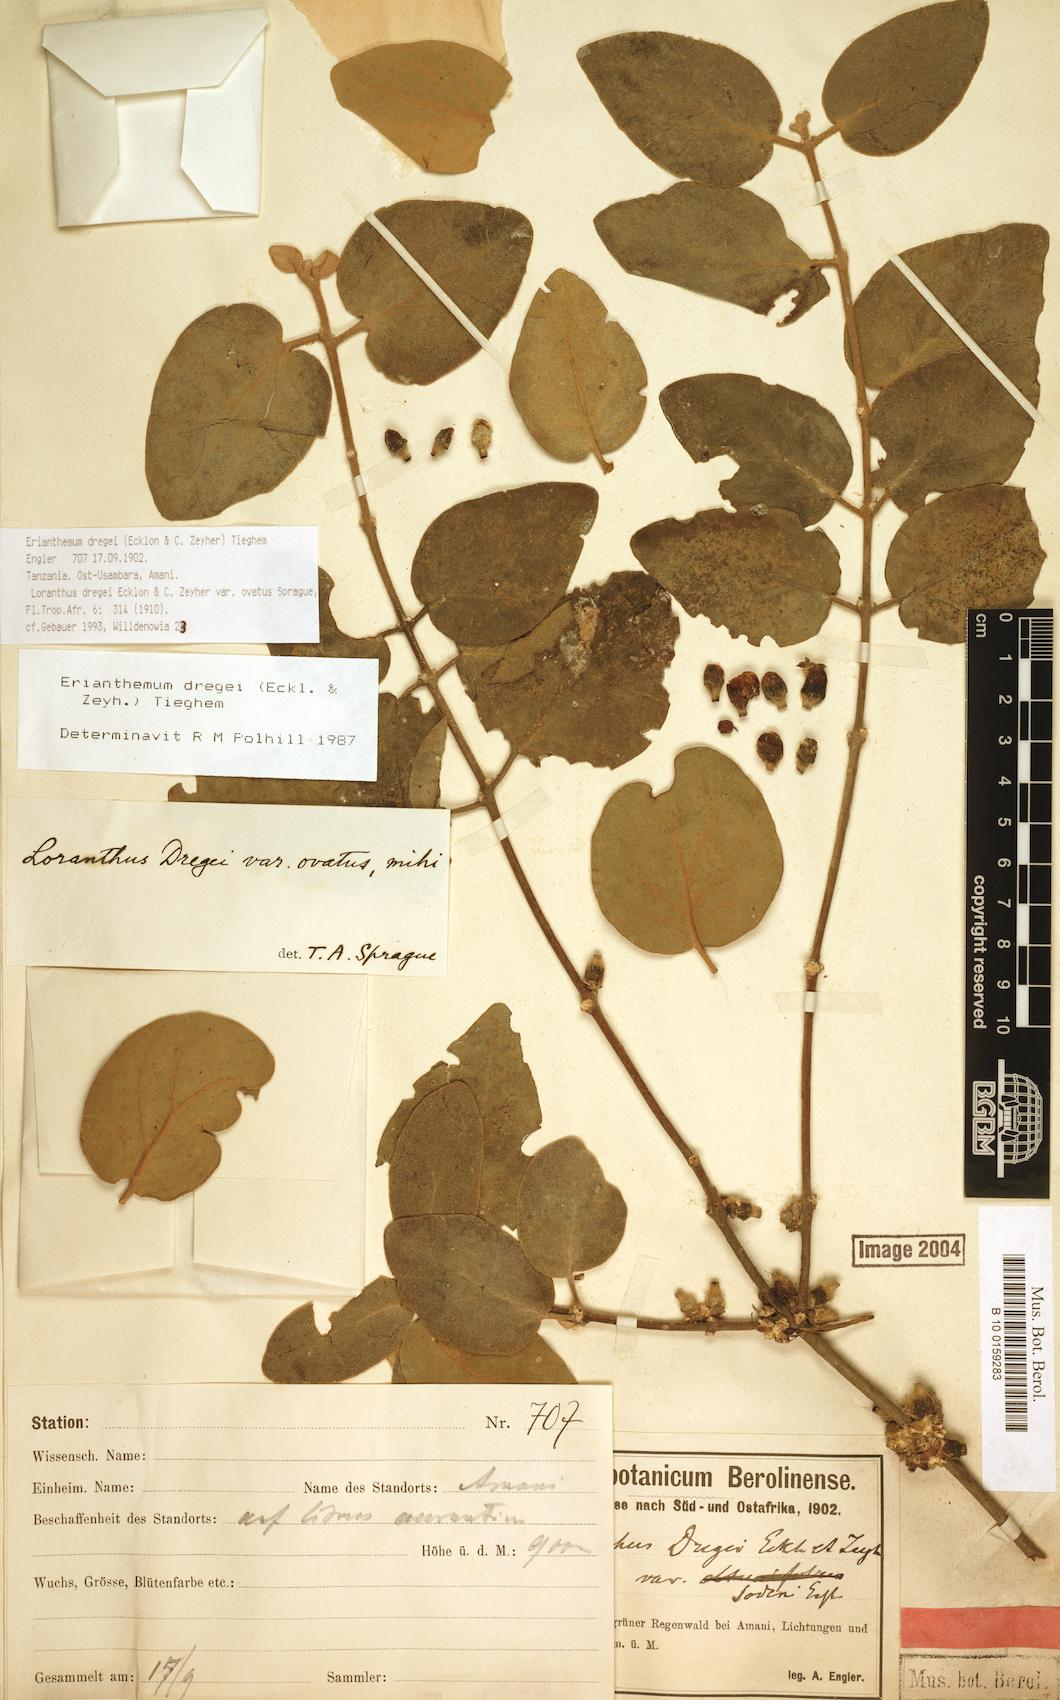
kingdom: Plantae
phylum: Tracheophyta
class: Magnoliopsida
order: Santalales
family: Loranthaceae
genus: Erianthemum
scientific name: Erianthemum dregei
